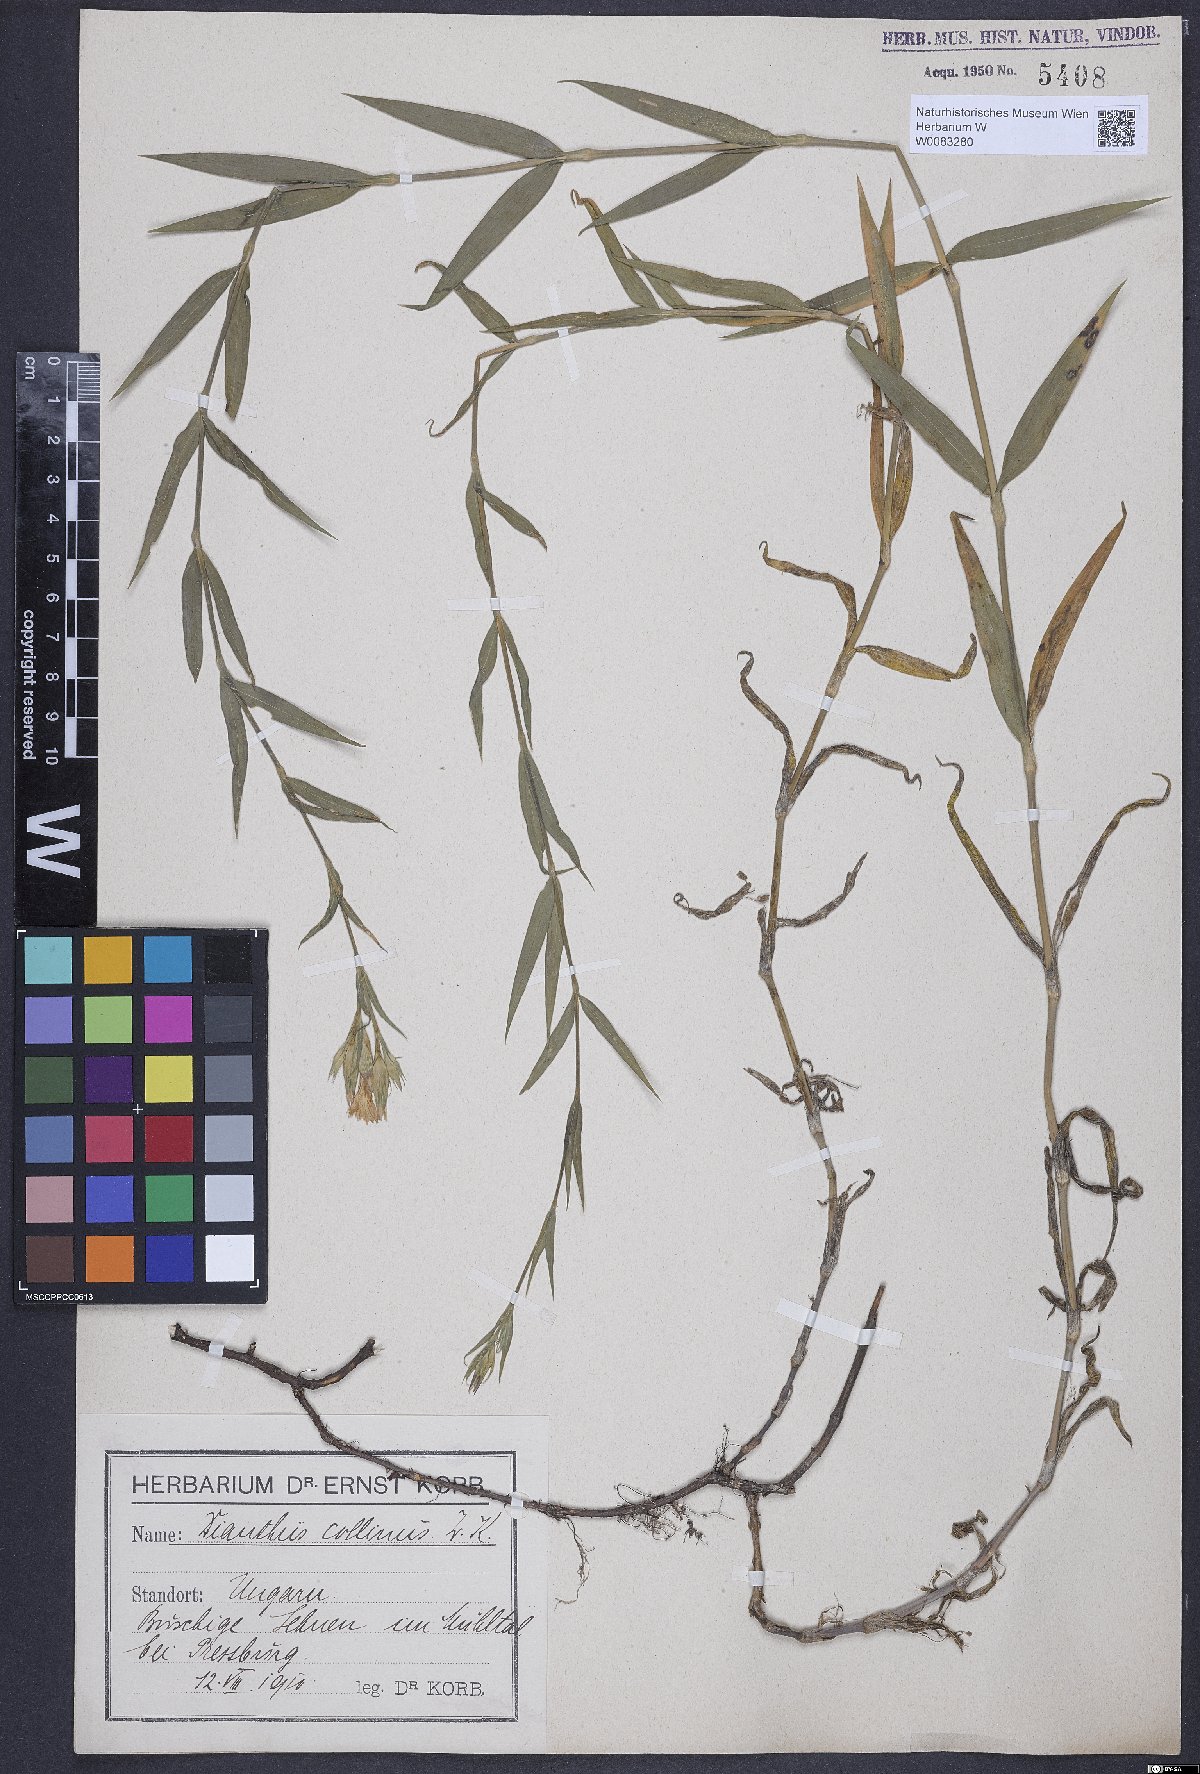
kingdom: Plantae
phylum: Tracheophyta
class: Magnoliopsida
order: Caryophyllales
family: Caryophyllaceae
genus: Dianthus
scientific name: Dianthus collinus
